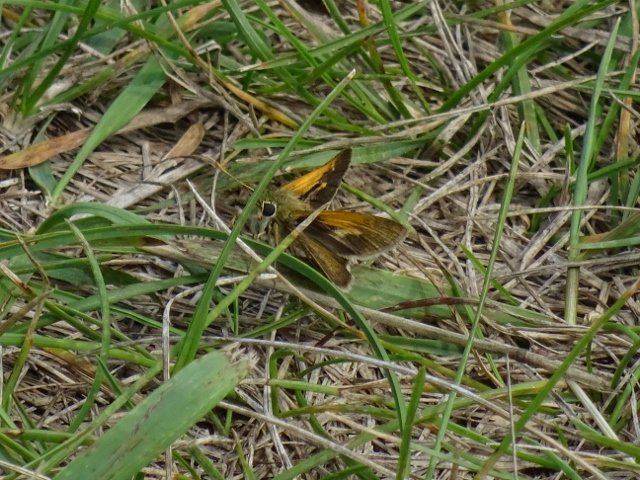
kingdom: Animalia
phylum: Arthropoda
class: Insecta
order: Lepidoptera
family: Hesperiidae
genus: Polites
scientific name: Polites themistocles
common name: Tawny-edged Skipper
